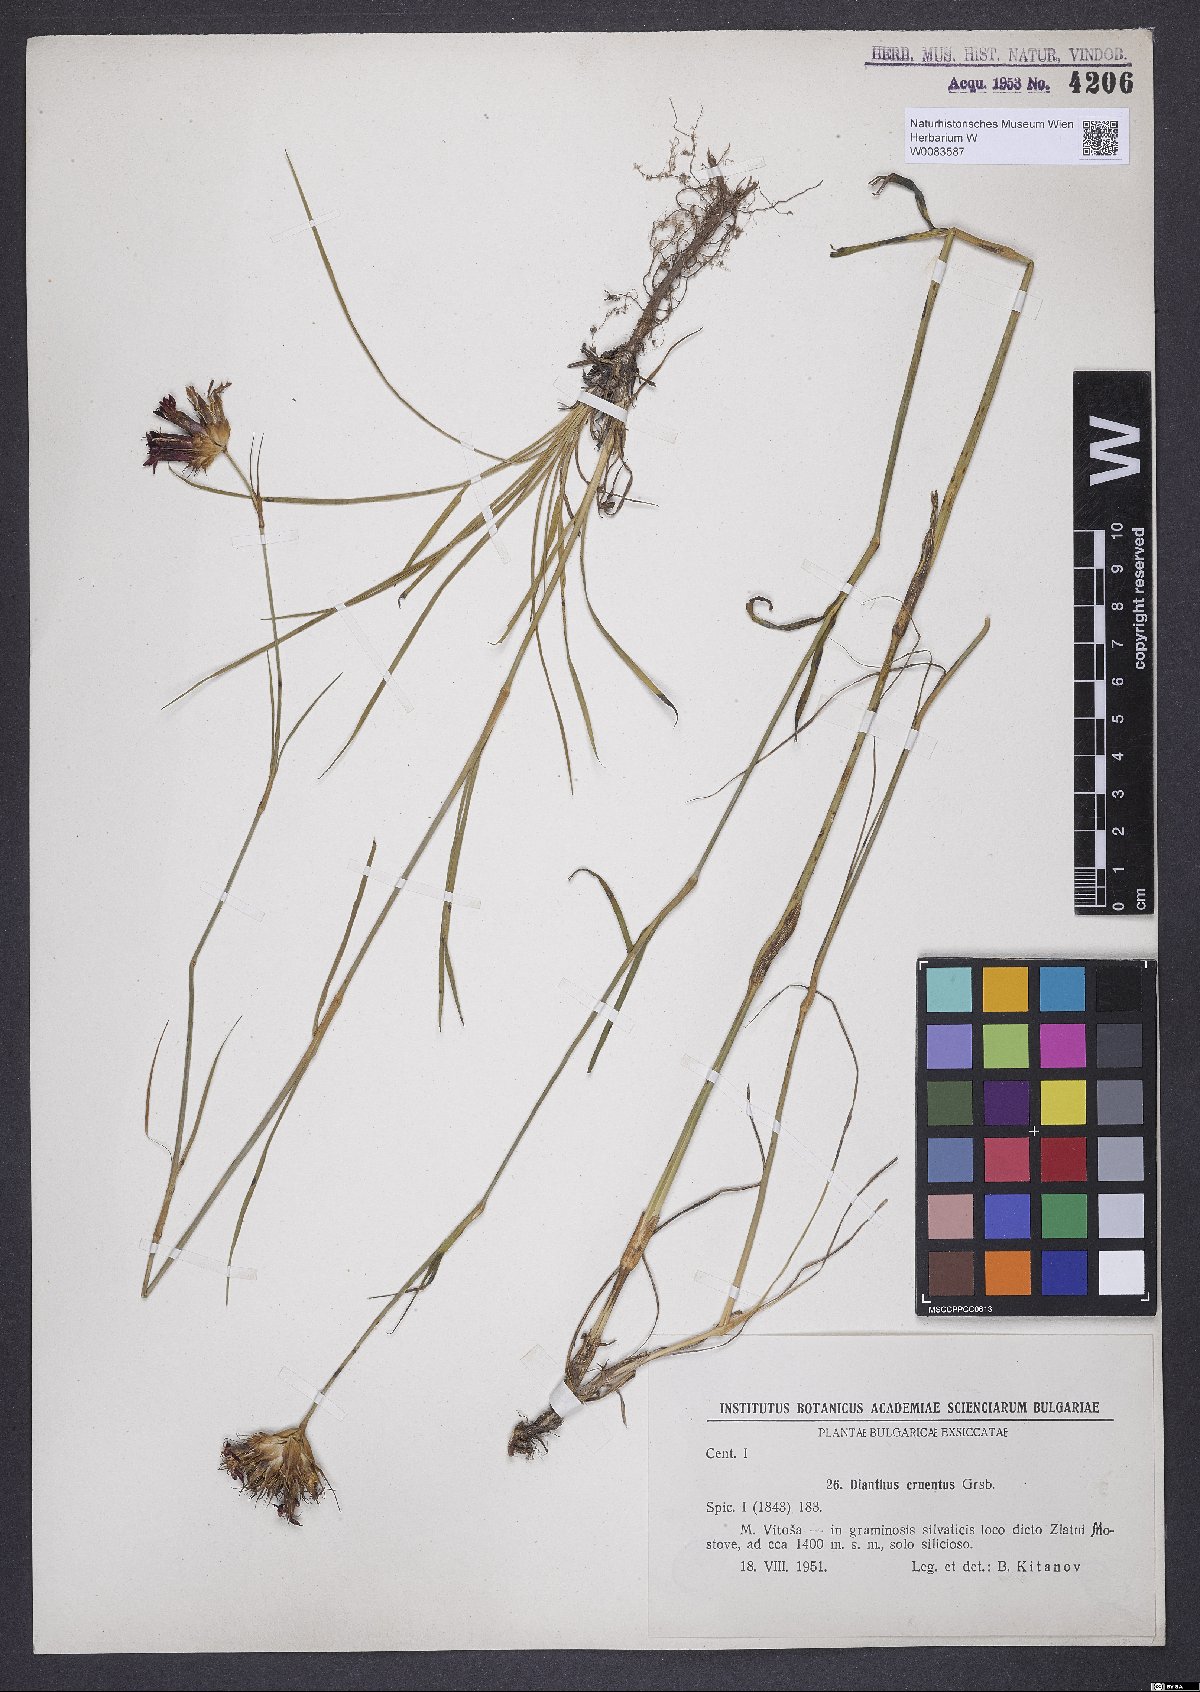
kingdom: Plantae
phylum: Tracheophyta
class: Magnoliopsida
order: Caryophyllales
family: Caryophyllaceae
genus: Dianthus
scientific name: Dianthus cruentus
